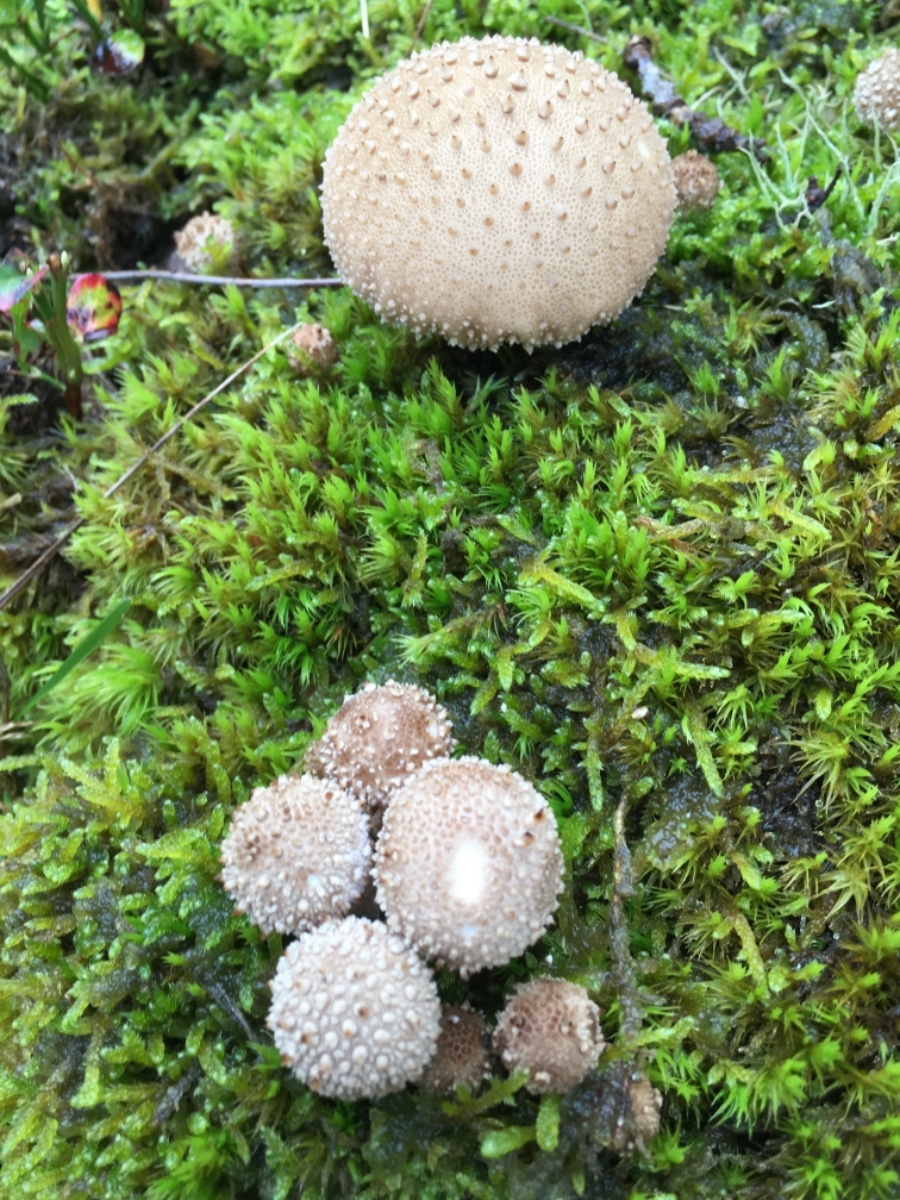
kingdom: Fungi
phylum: Basidiomycota
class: Agaricomycetes
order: Agaricales
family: Lycoperdaceae
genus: Lycoperdon
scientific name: Lycoperdon perlatum
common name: krystal-støvbold
